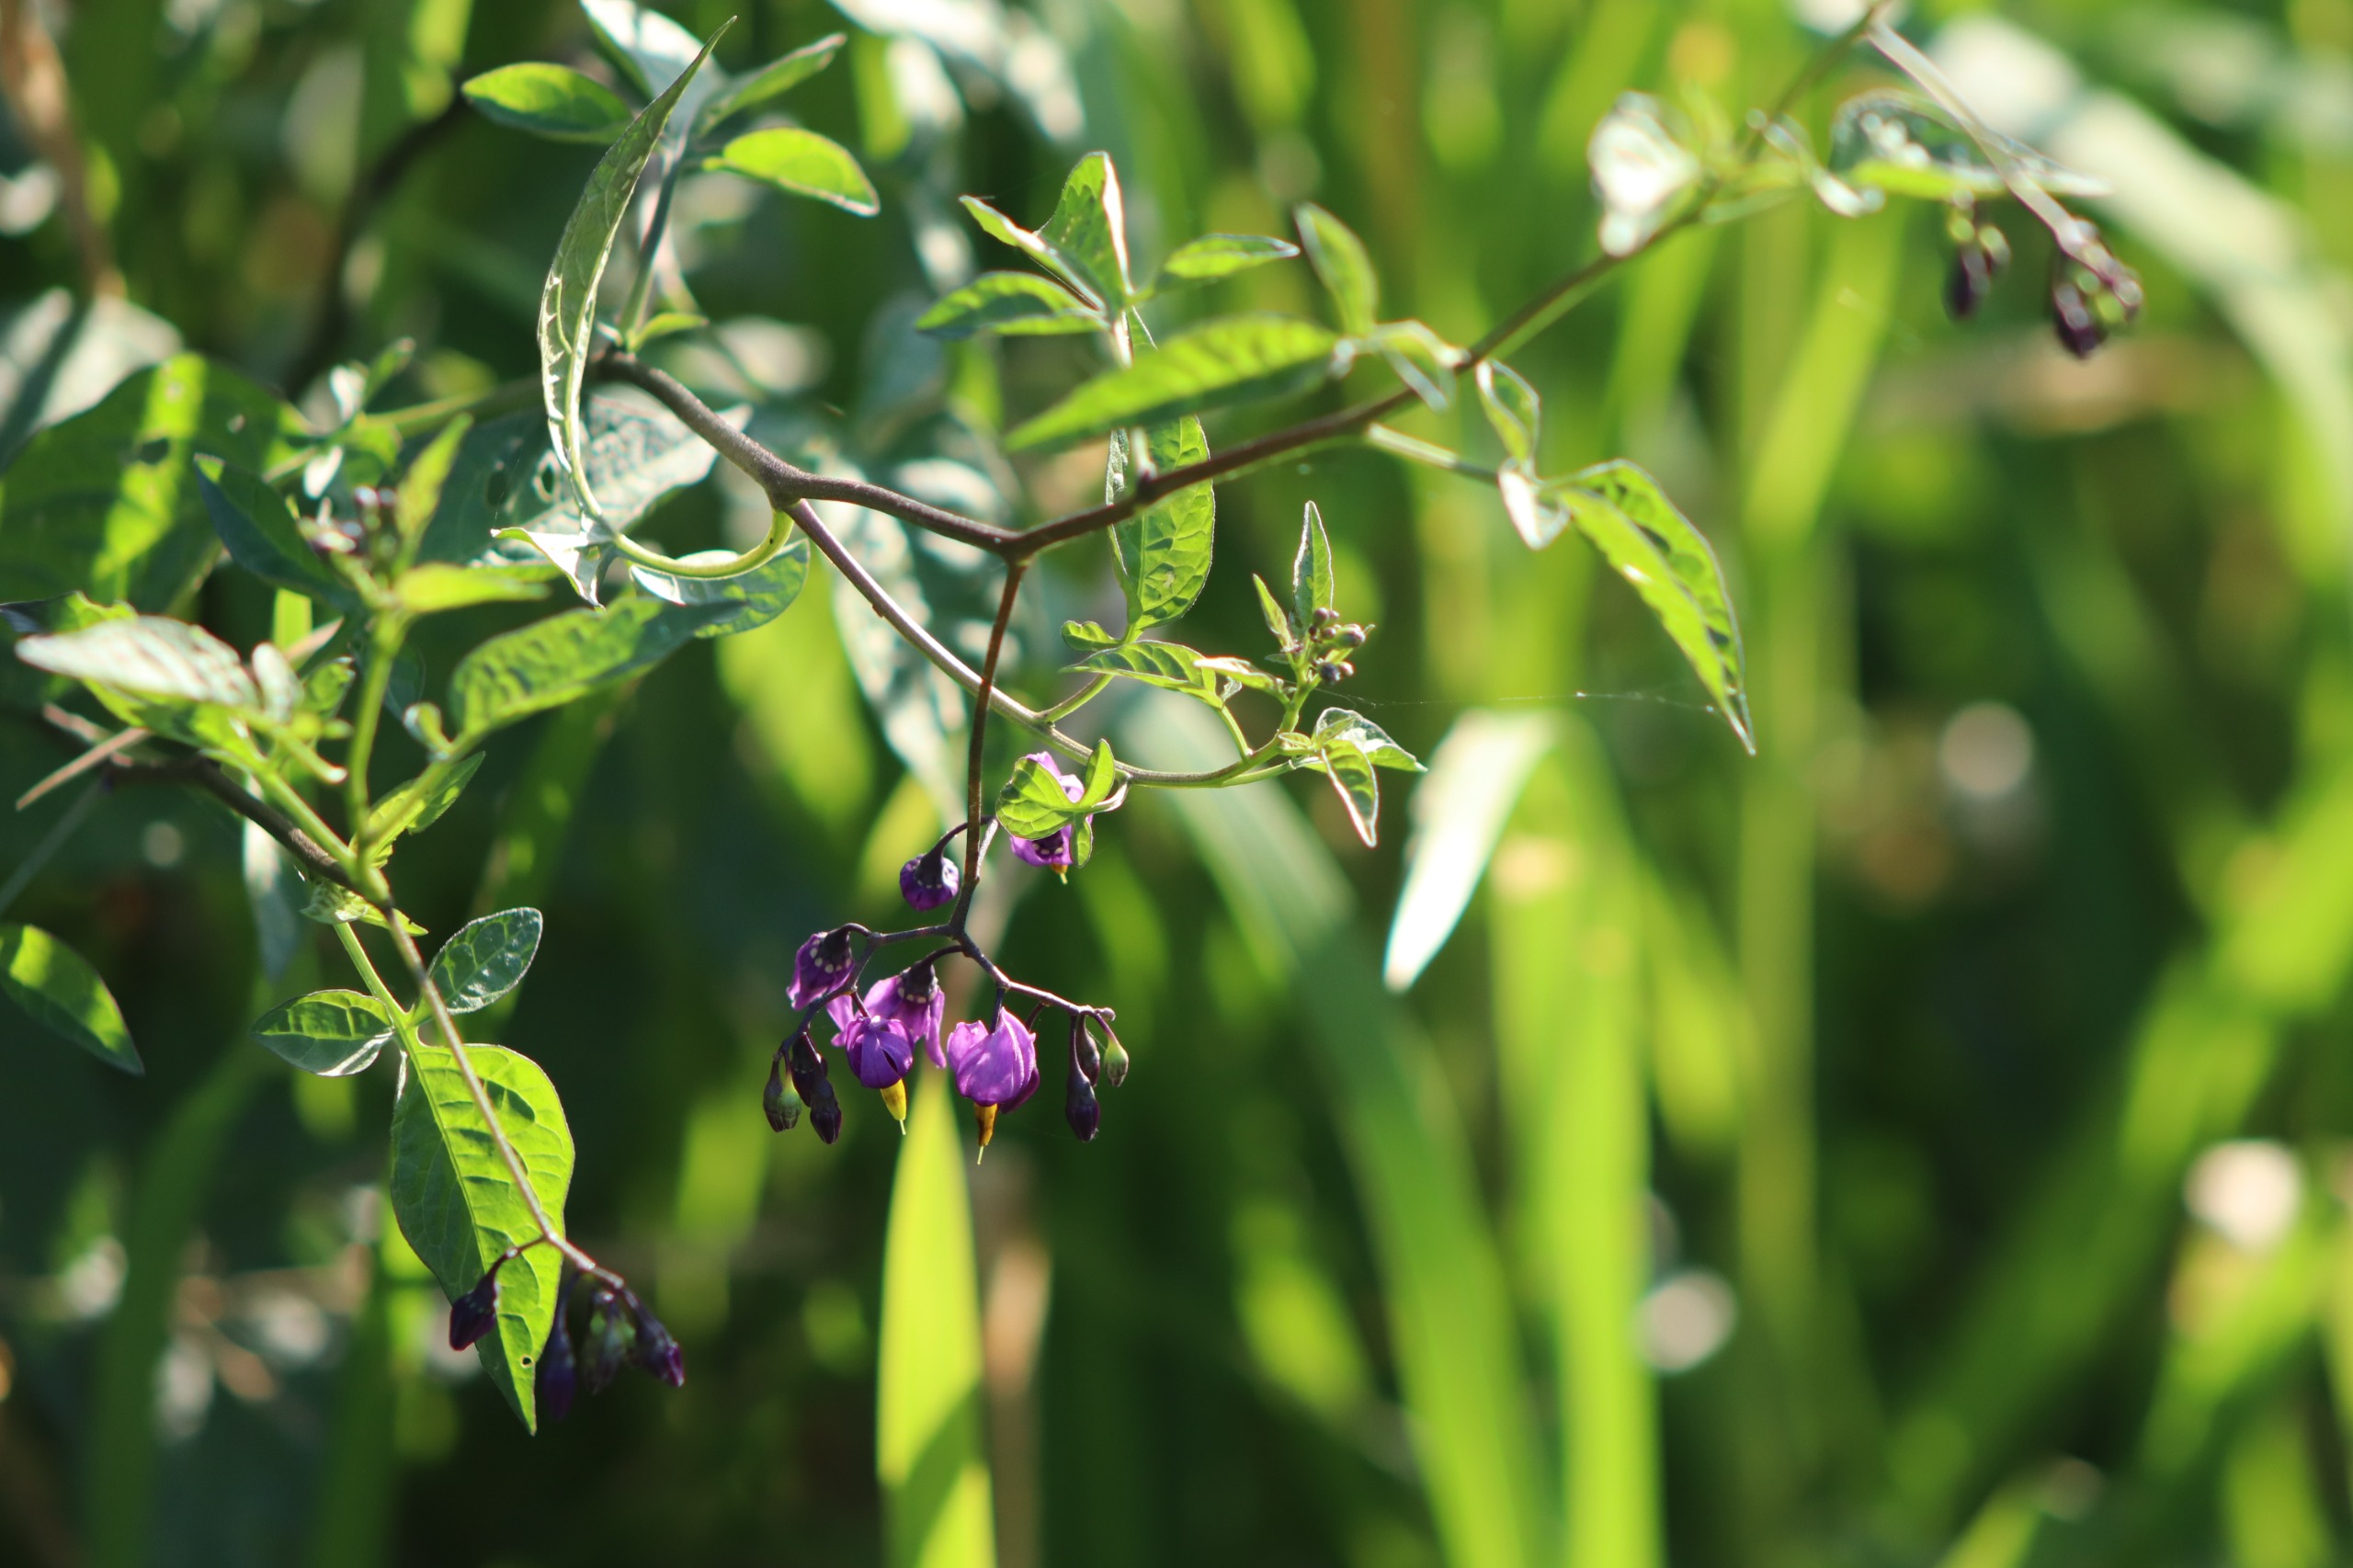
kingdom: Plantae
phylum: Tracheophyta
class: Magnoliopsida
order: Solanales
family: Solanaceae
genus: Solanum
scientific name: Solanum dulcamara
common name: Bittersød natskygge
